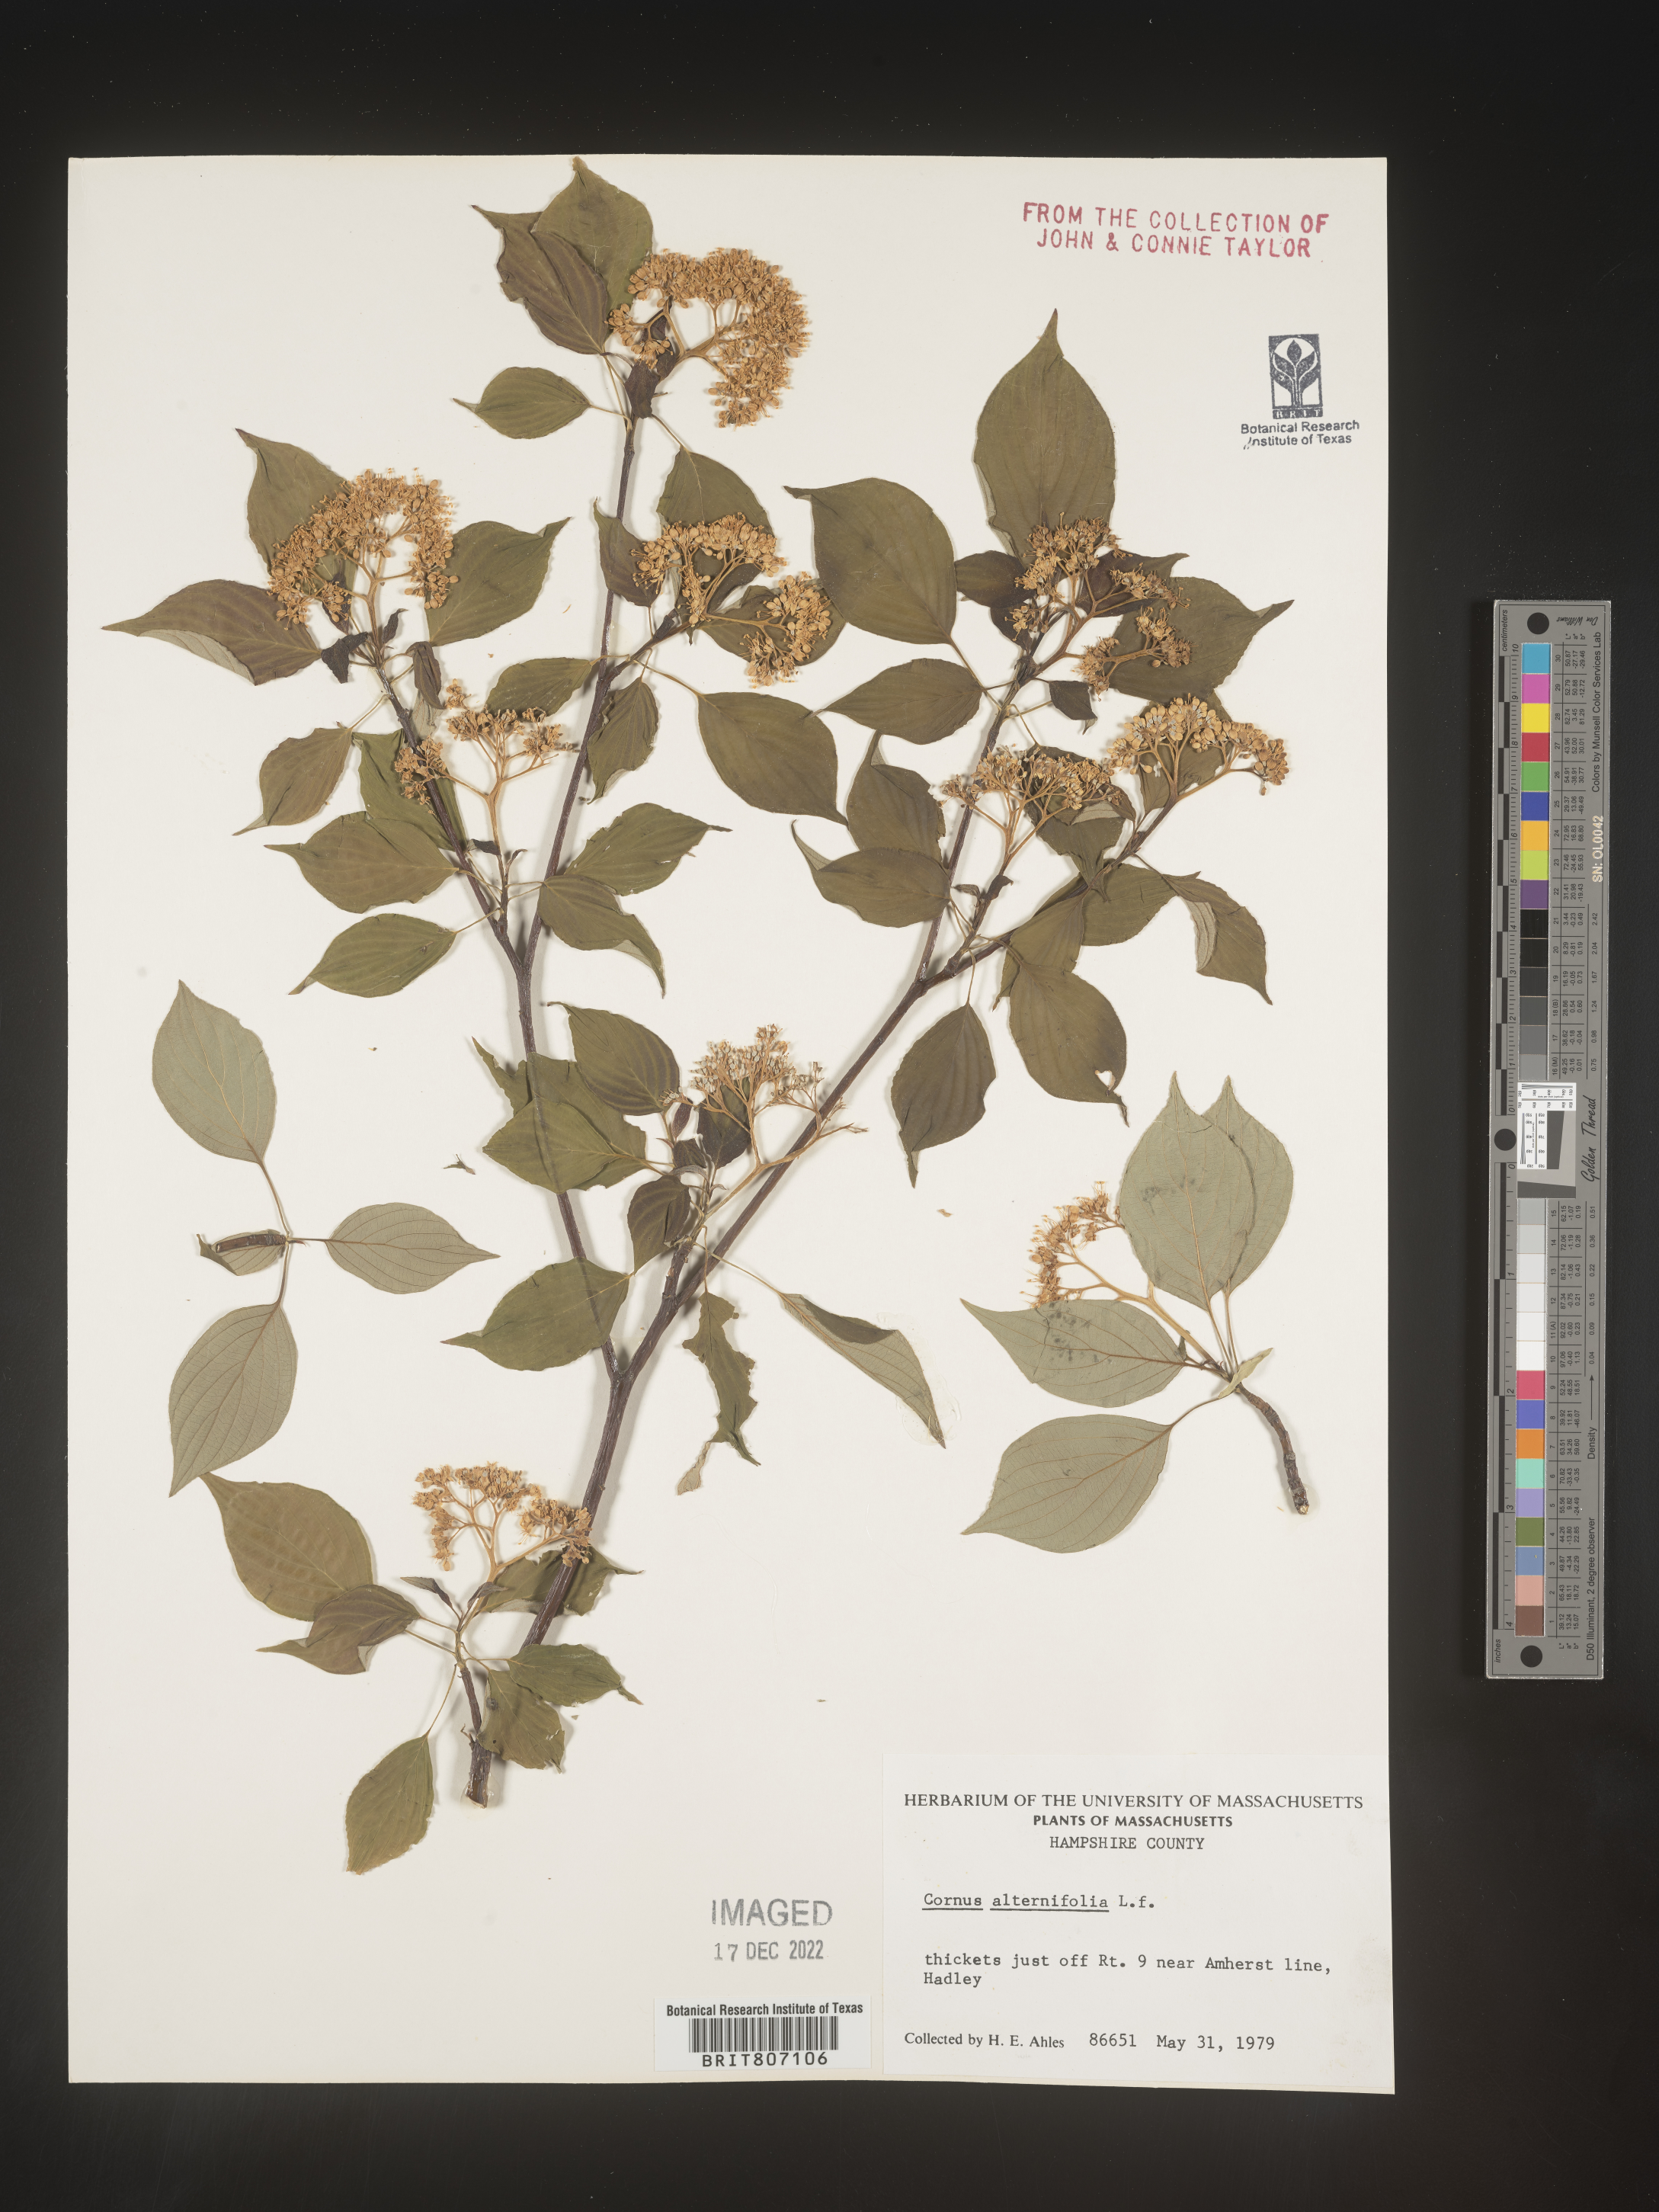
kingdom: Plantae
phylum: Tracheophyta
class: Magnoliopsida
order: Cornales
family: Cornaceae
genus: Cornus
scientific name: Cornus alternifolia
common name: Pagoda dogwood
